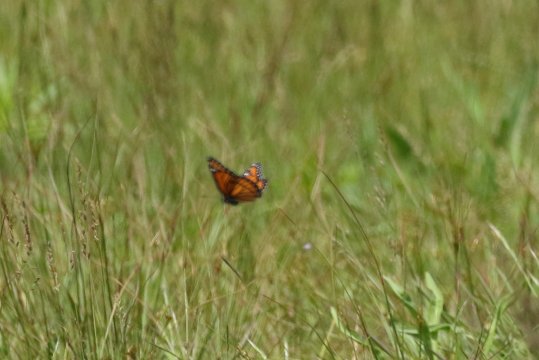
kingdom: Animalia
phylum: Arthropoda
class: Insecta
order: Lepidoptera
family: Nymphalidae
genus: Limenitis
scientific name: Limenitis archippus
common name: Viceroy
